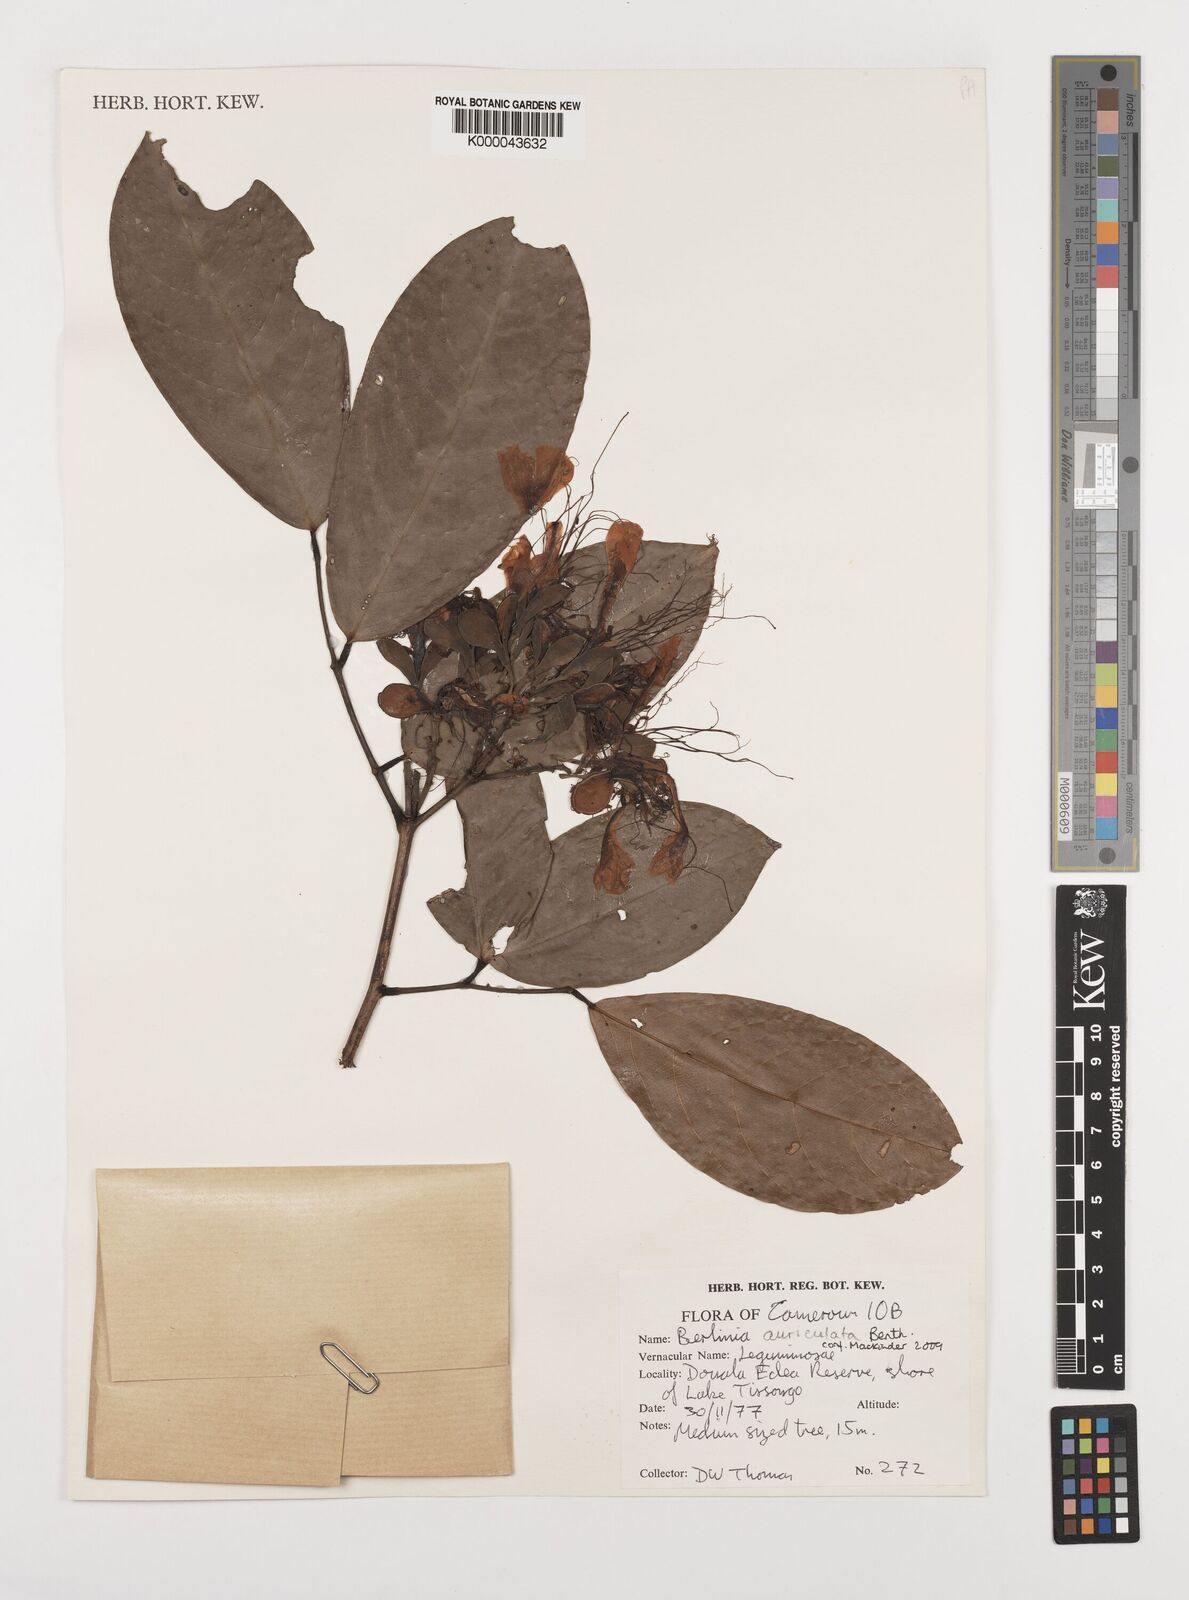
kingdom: Plantae
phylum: Tracheophyta
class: Magnoliopsida
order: Fabales
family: Fabaceae
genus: Berlinia
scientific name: Berlinia tomentella
